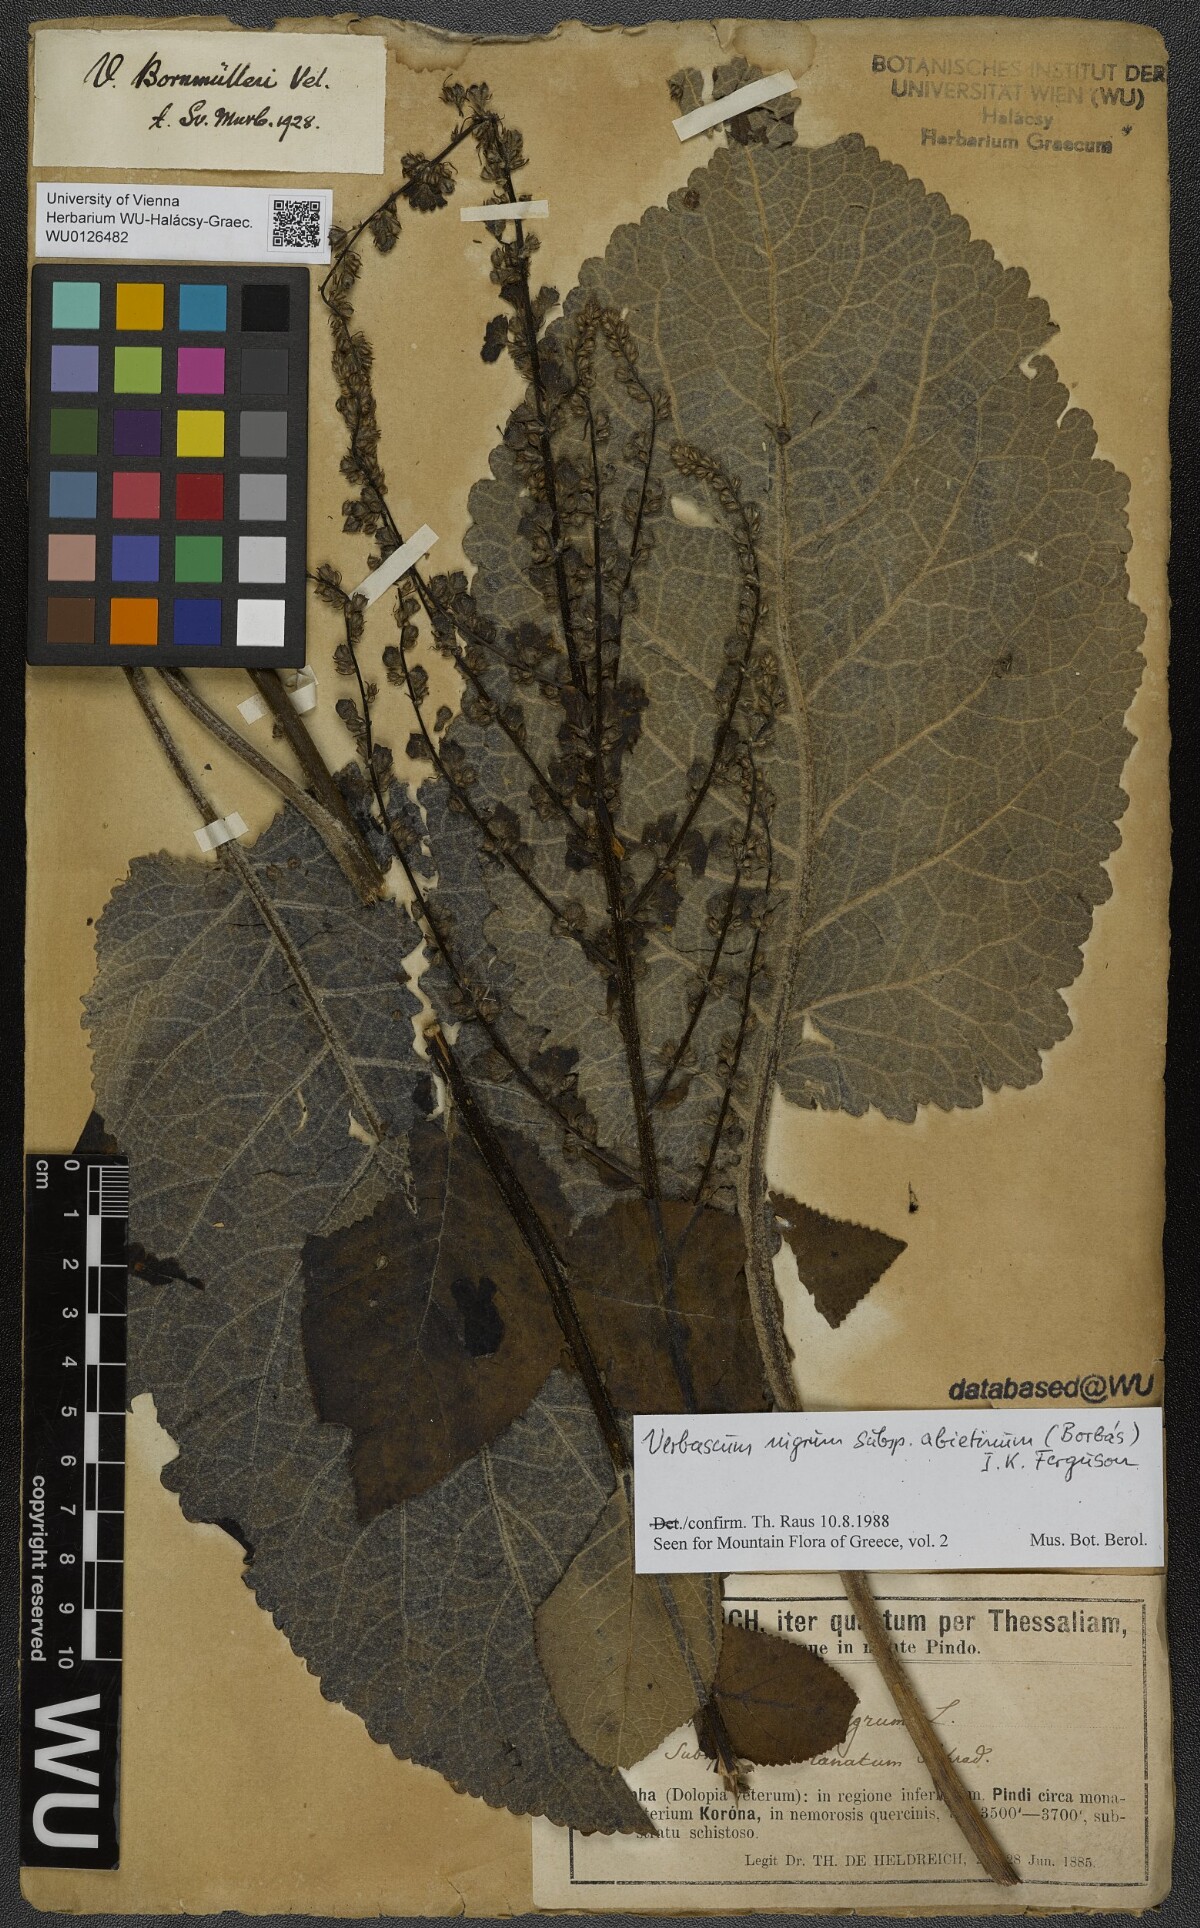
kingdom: Plantae
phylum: Tracheophyta
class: Magnoliopsida
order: Lamiales
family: Scrophulariaceae
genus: Verbascum
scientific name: Verbascum nigrum
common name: Dark mullein
